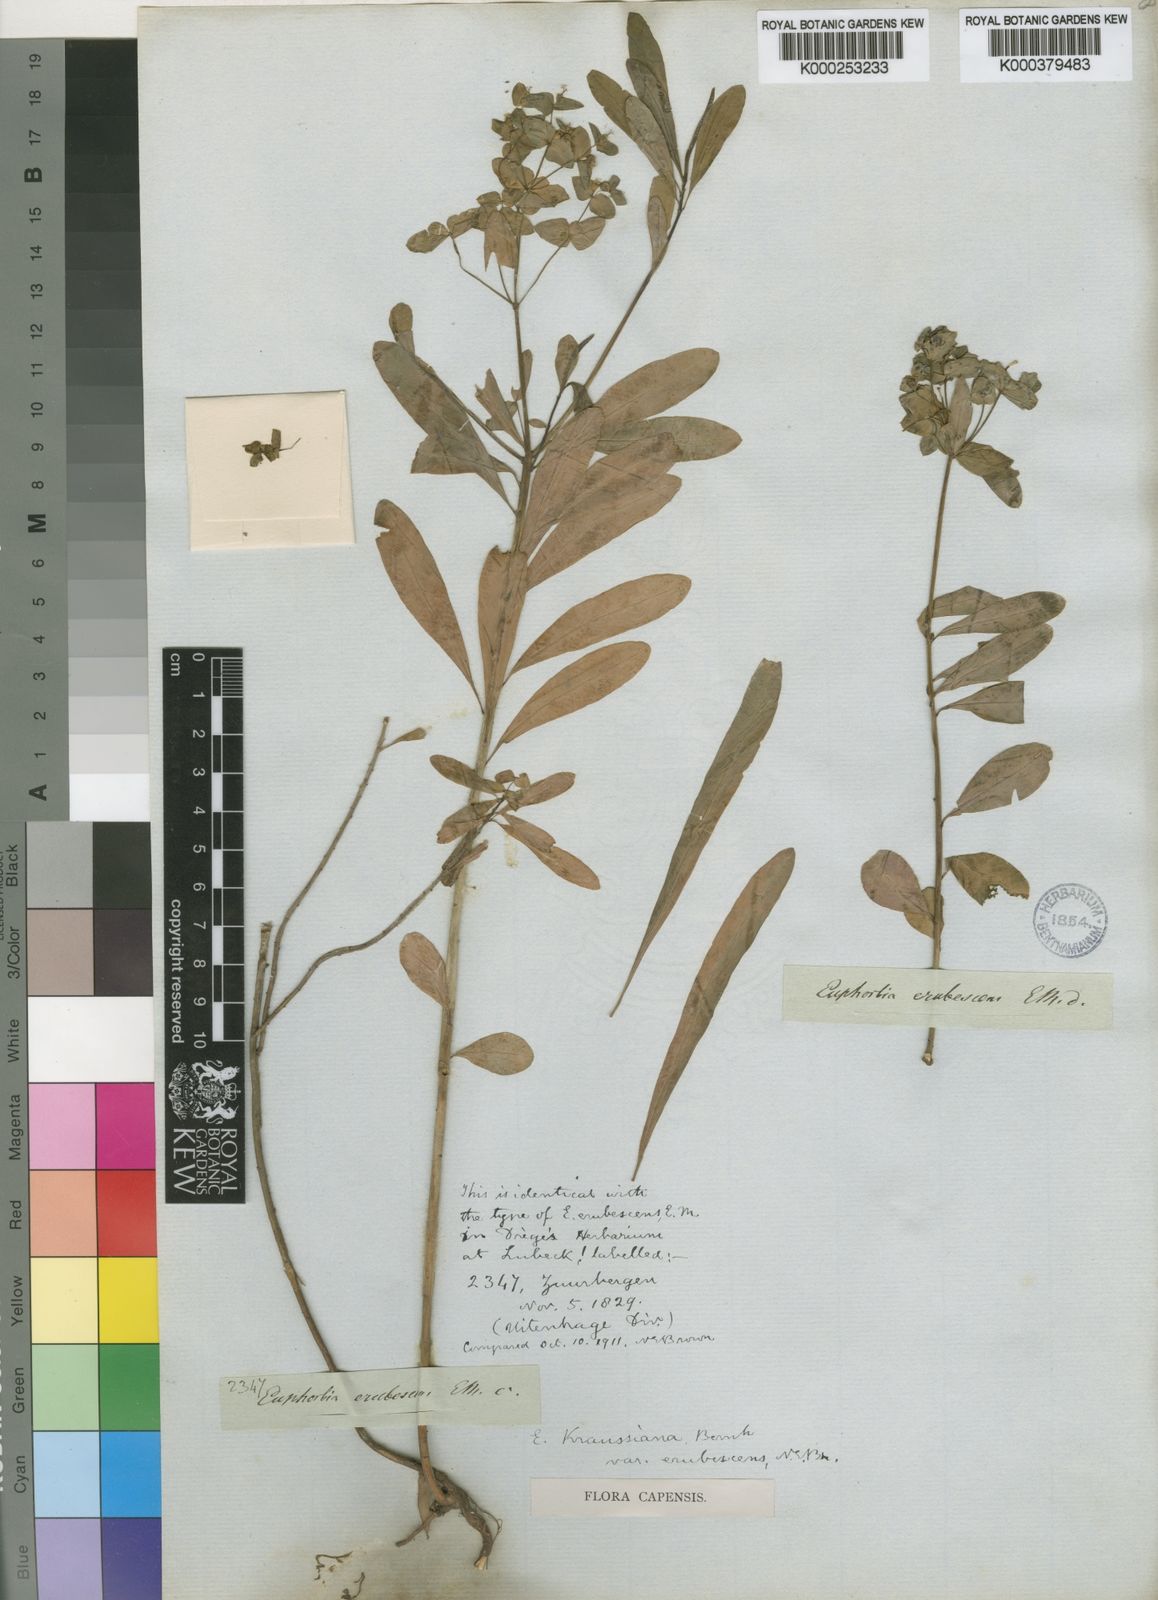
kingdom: Plantae
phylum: Tracheophyta
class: Magnoliopsida
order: Malpighiales
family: Euphorbiaceae
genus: Euphorbia
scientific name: Euphorbia kraussiana
